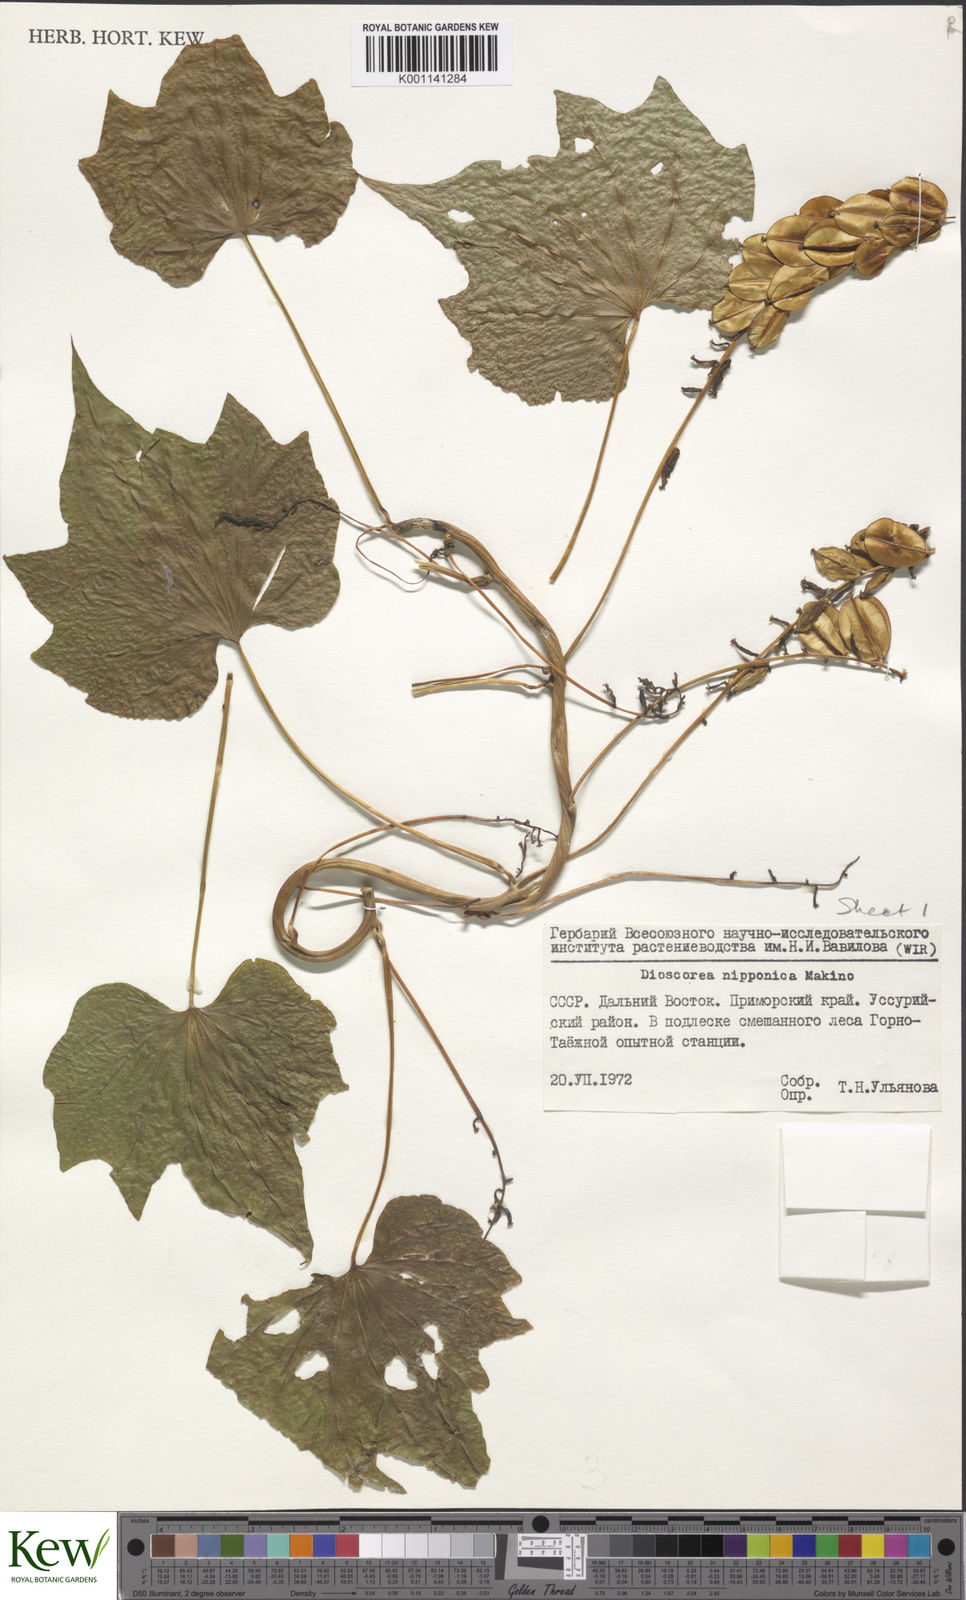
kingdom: Plantae
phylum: Tracheophyta
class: Liliopsida
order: Dioscoreales
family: Dioscoreaceae
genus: Dioscorea
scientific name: Dioscorea nipponica
